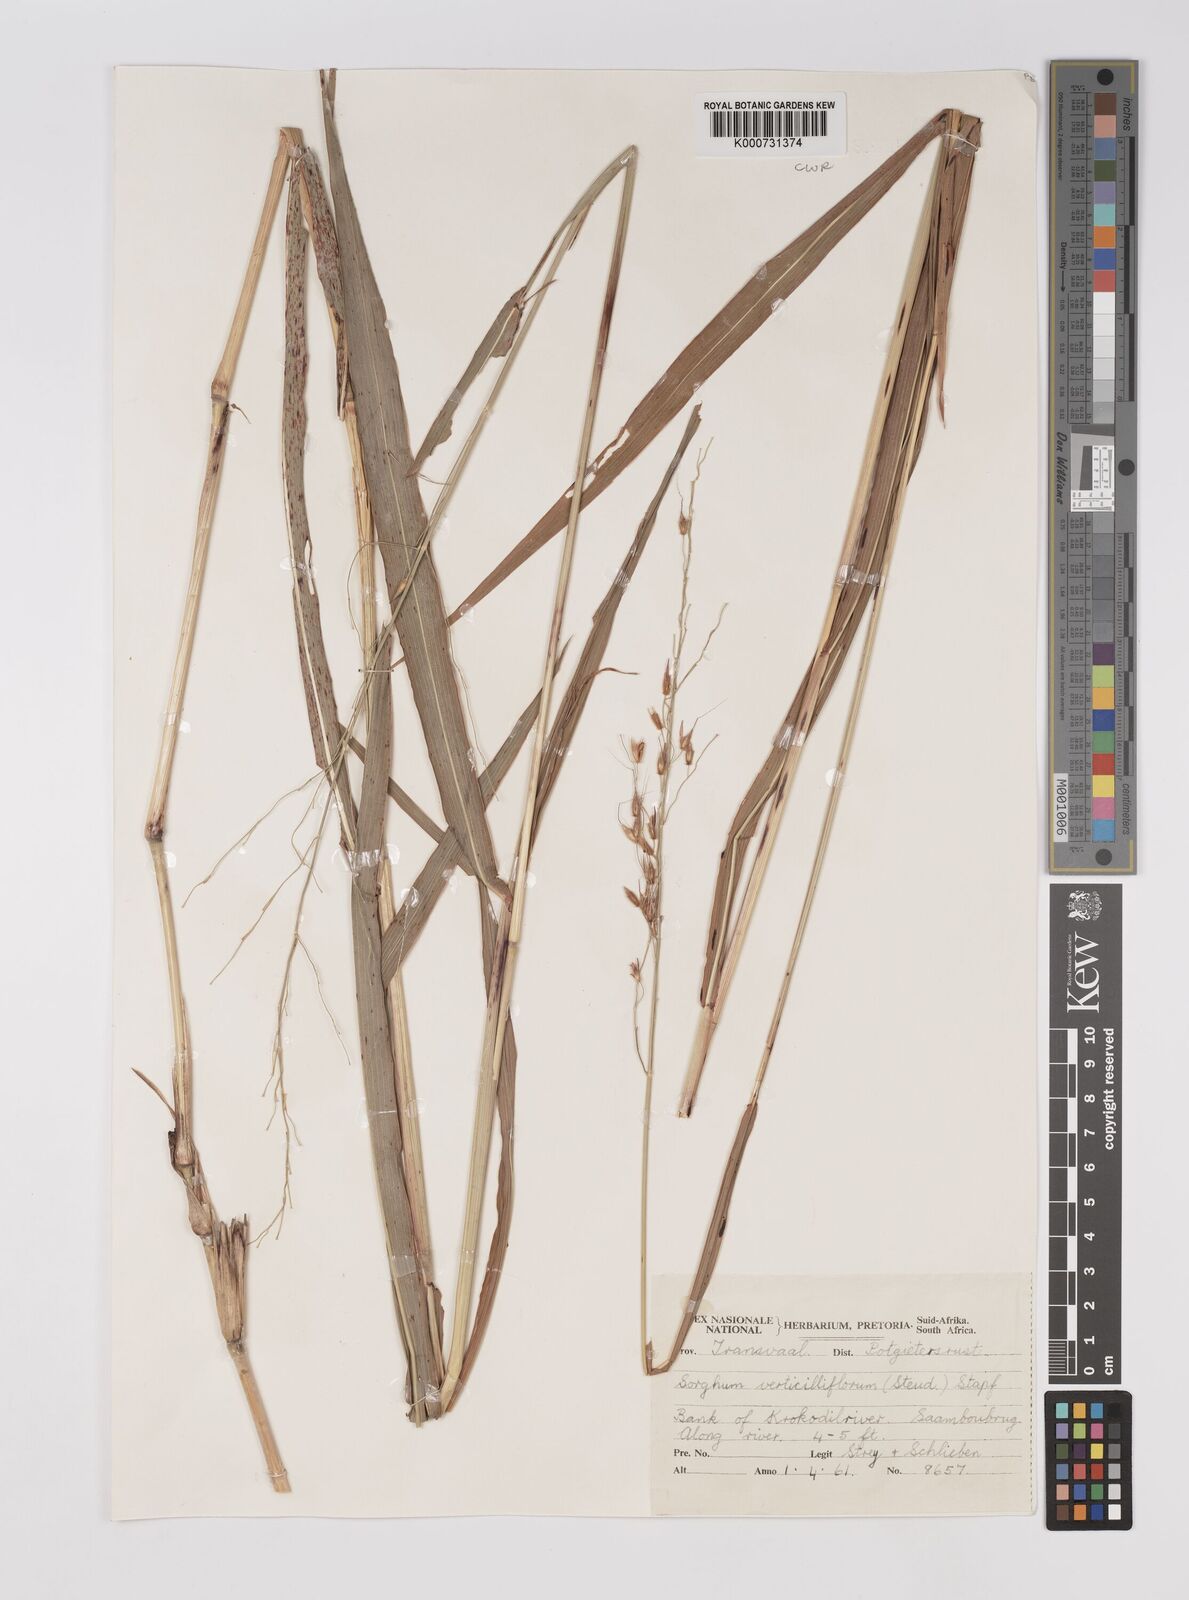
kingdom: Plantae
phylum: Tracheophyta
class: Liliopsida
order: Poales
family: Poaceae
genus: Sorghum
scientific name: Sorghum arundinaceum
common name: Sorghum
